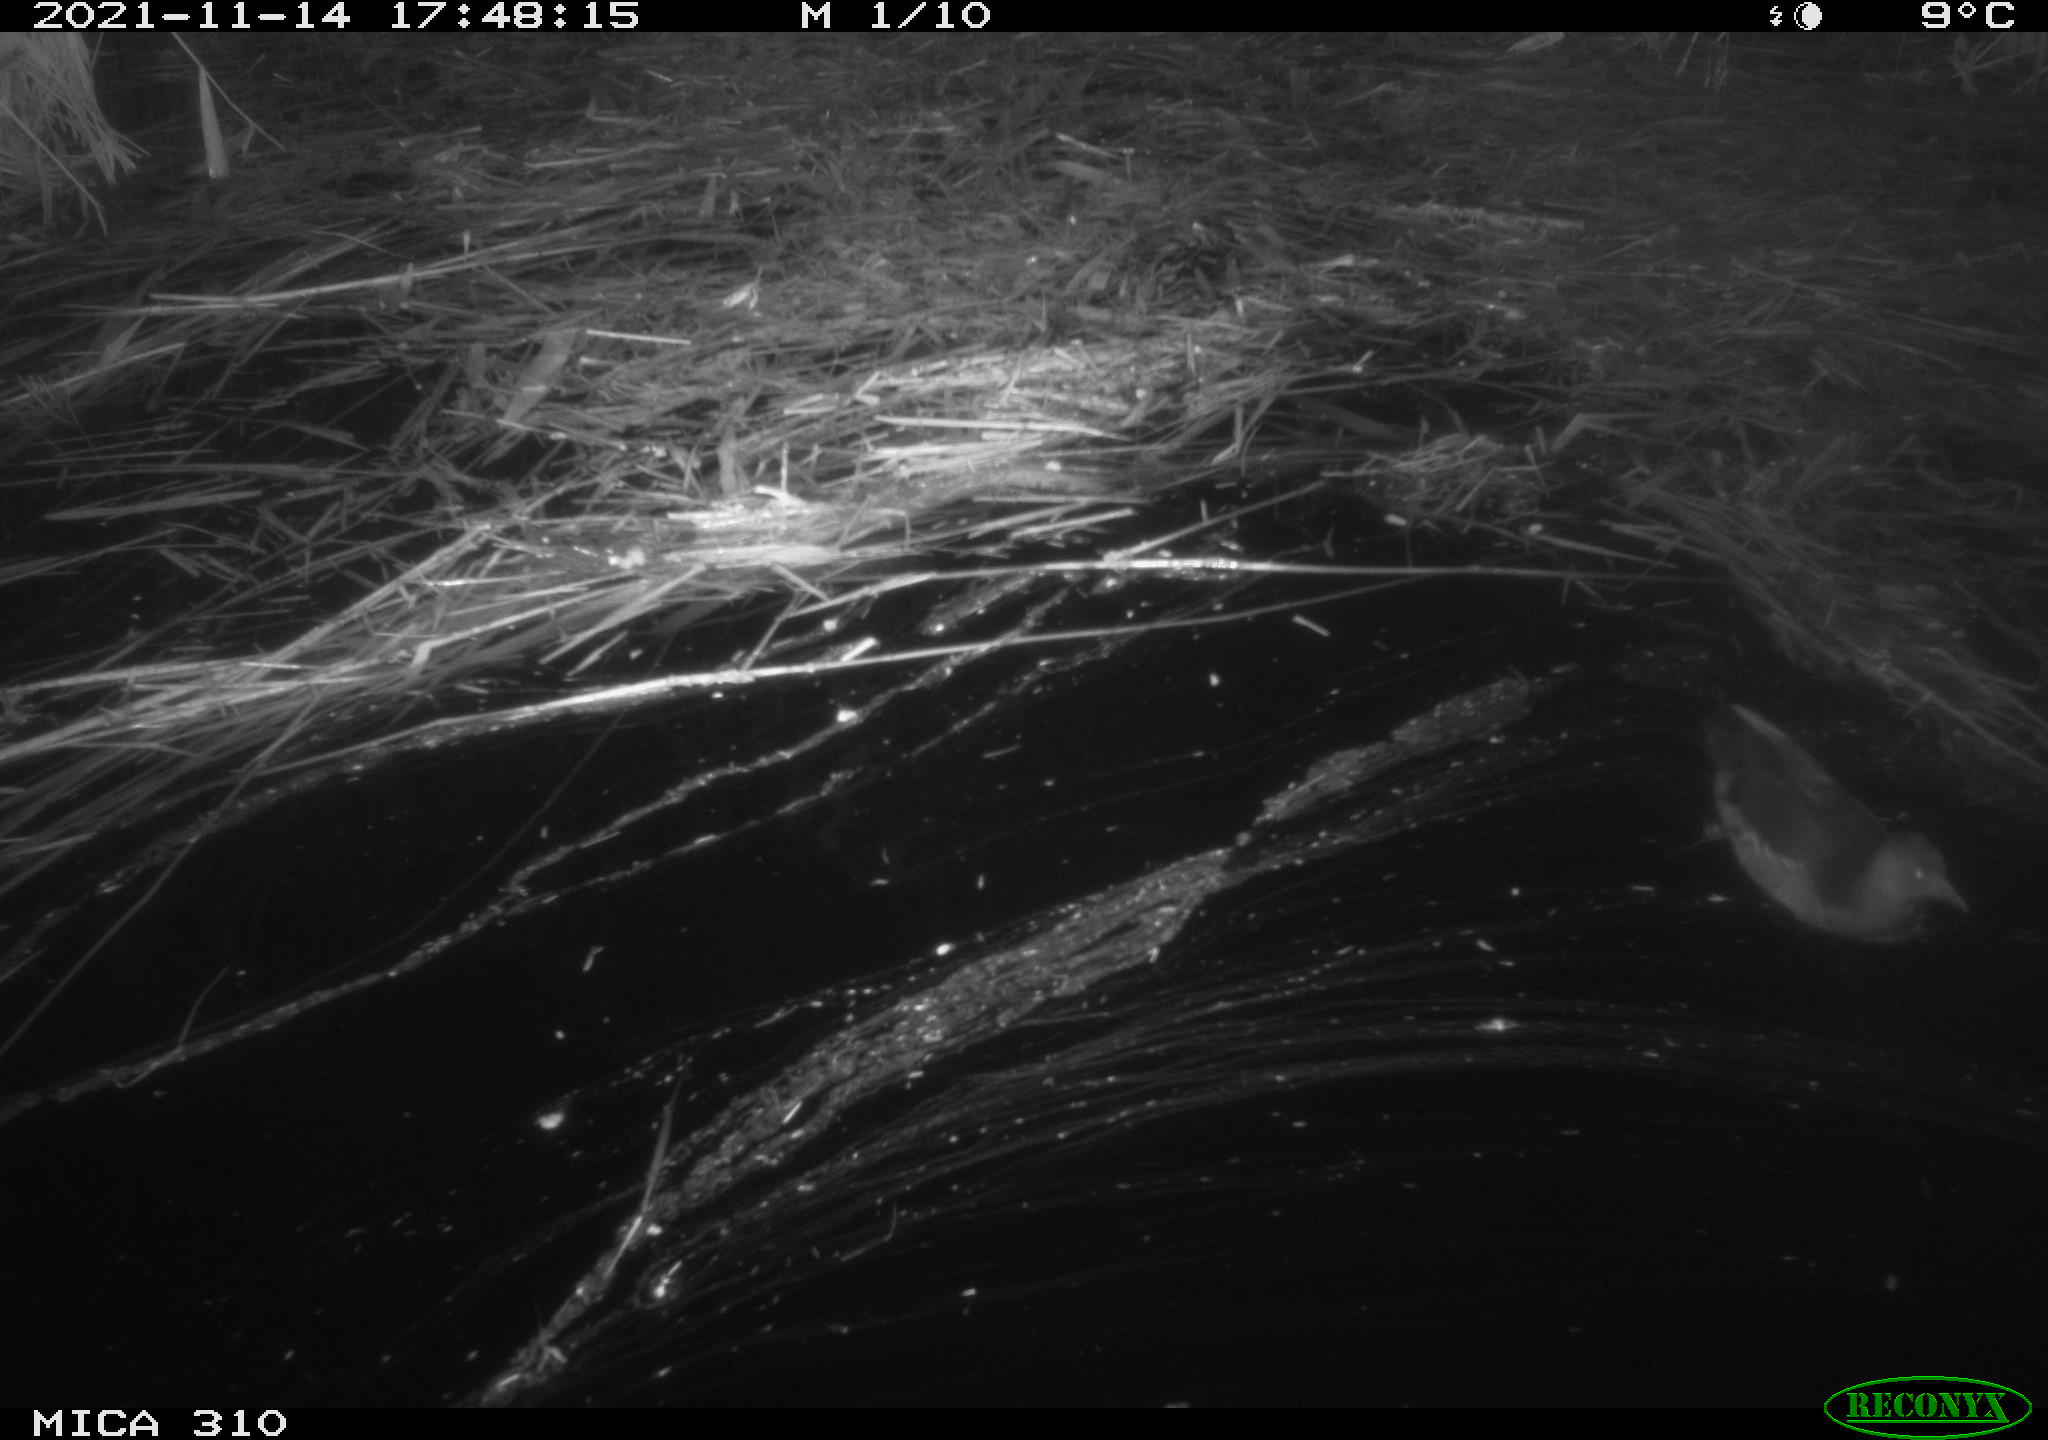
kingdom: Animalia
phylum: Chordata
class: Aves
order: Gruiformes
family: Rallidae
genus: Gallinula
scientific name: Gallinula chloropus
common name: Common moorhen
